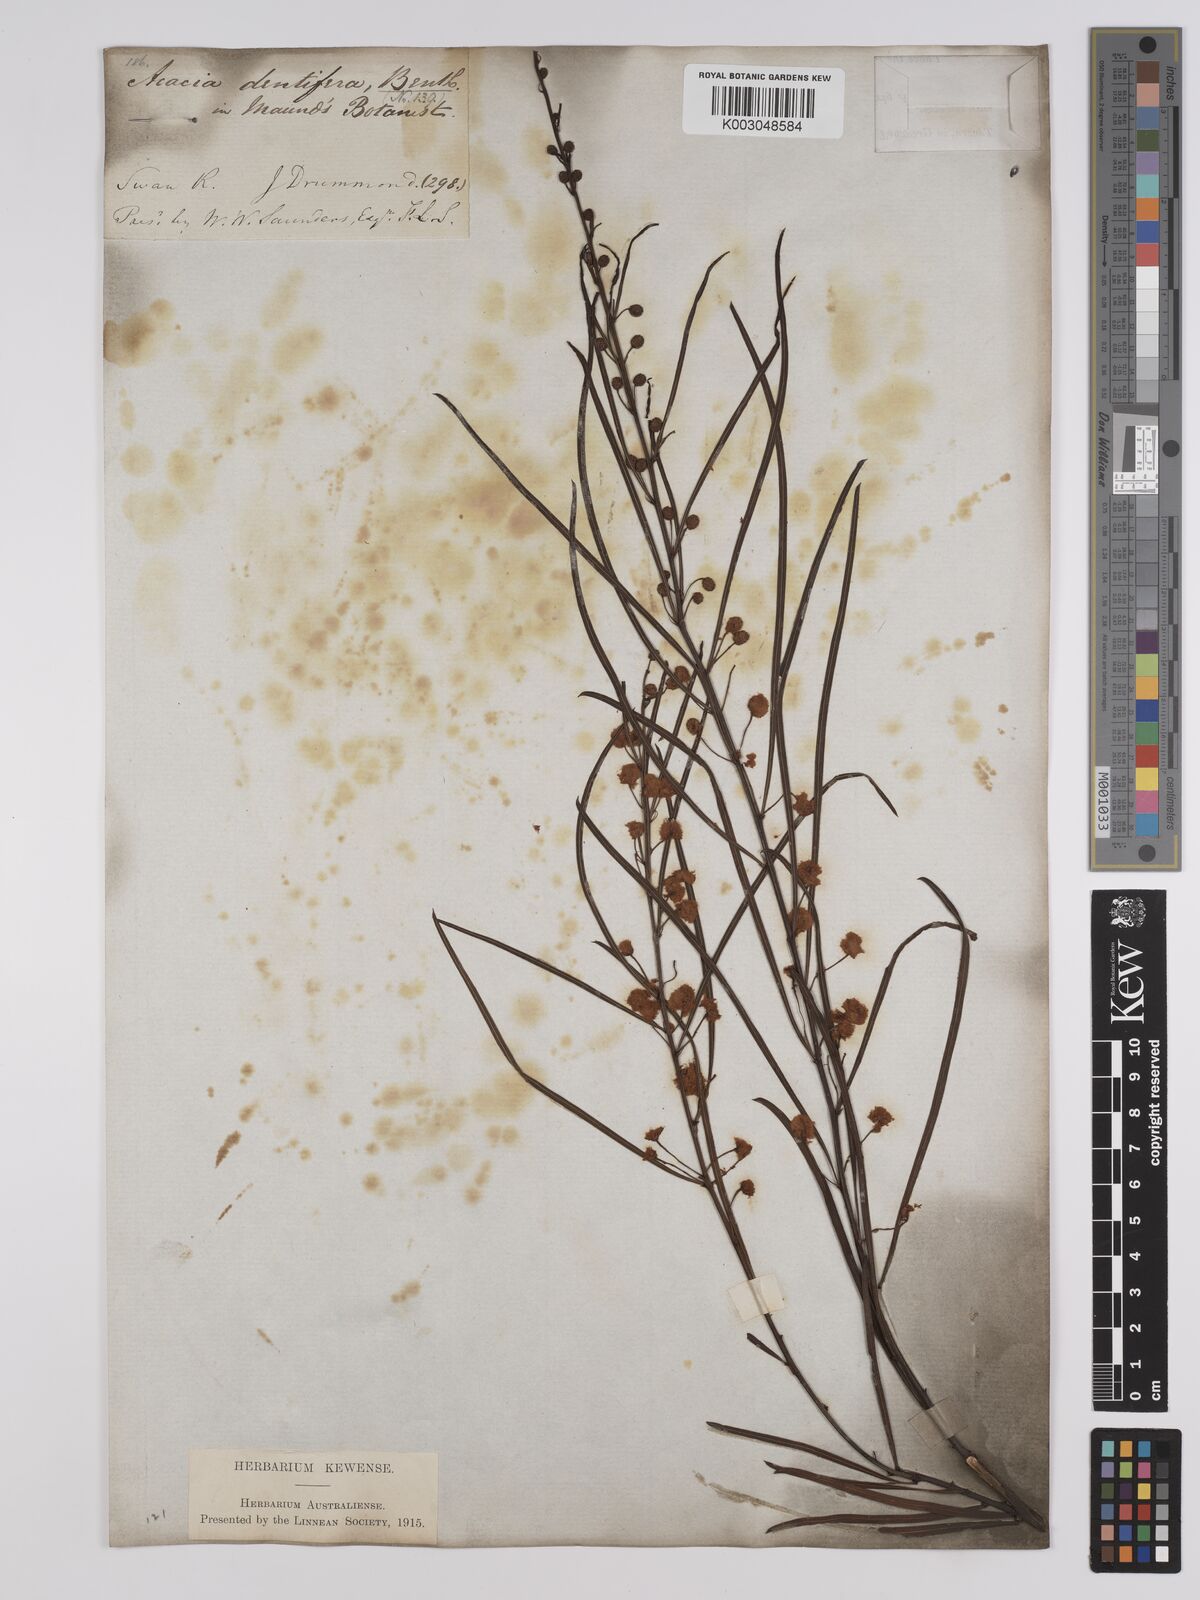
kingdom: Plantae
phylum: Tracheophyta
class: Magnoliopsida
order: Fabales
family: Fabaceae
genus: Acacia
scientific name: Acacia dentifera
